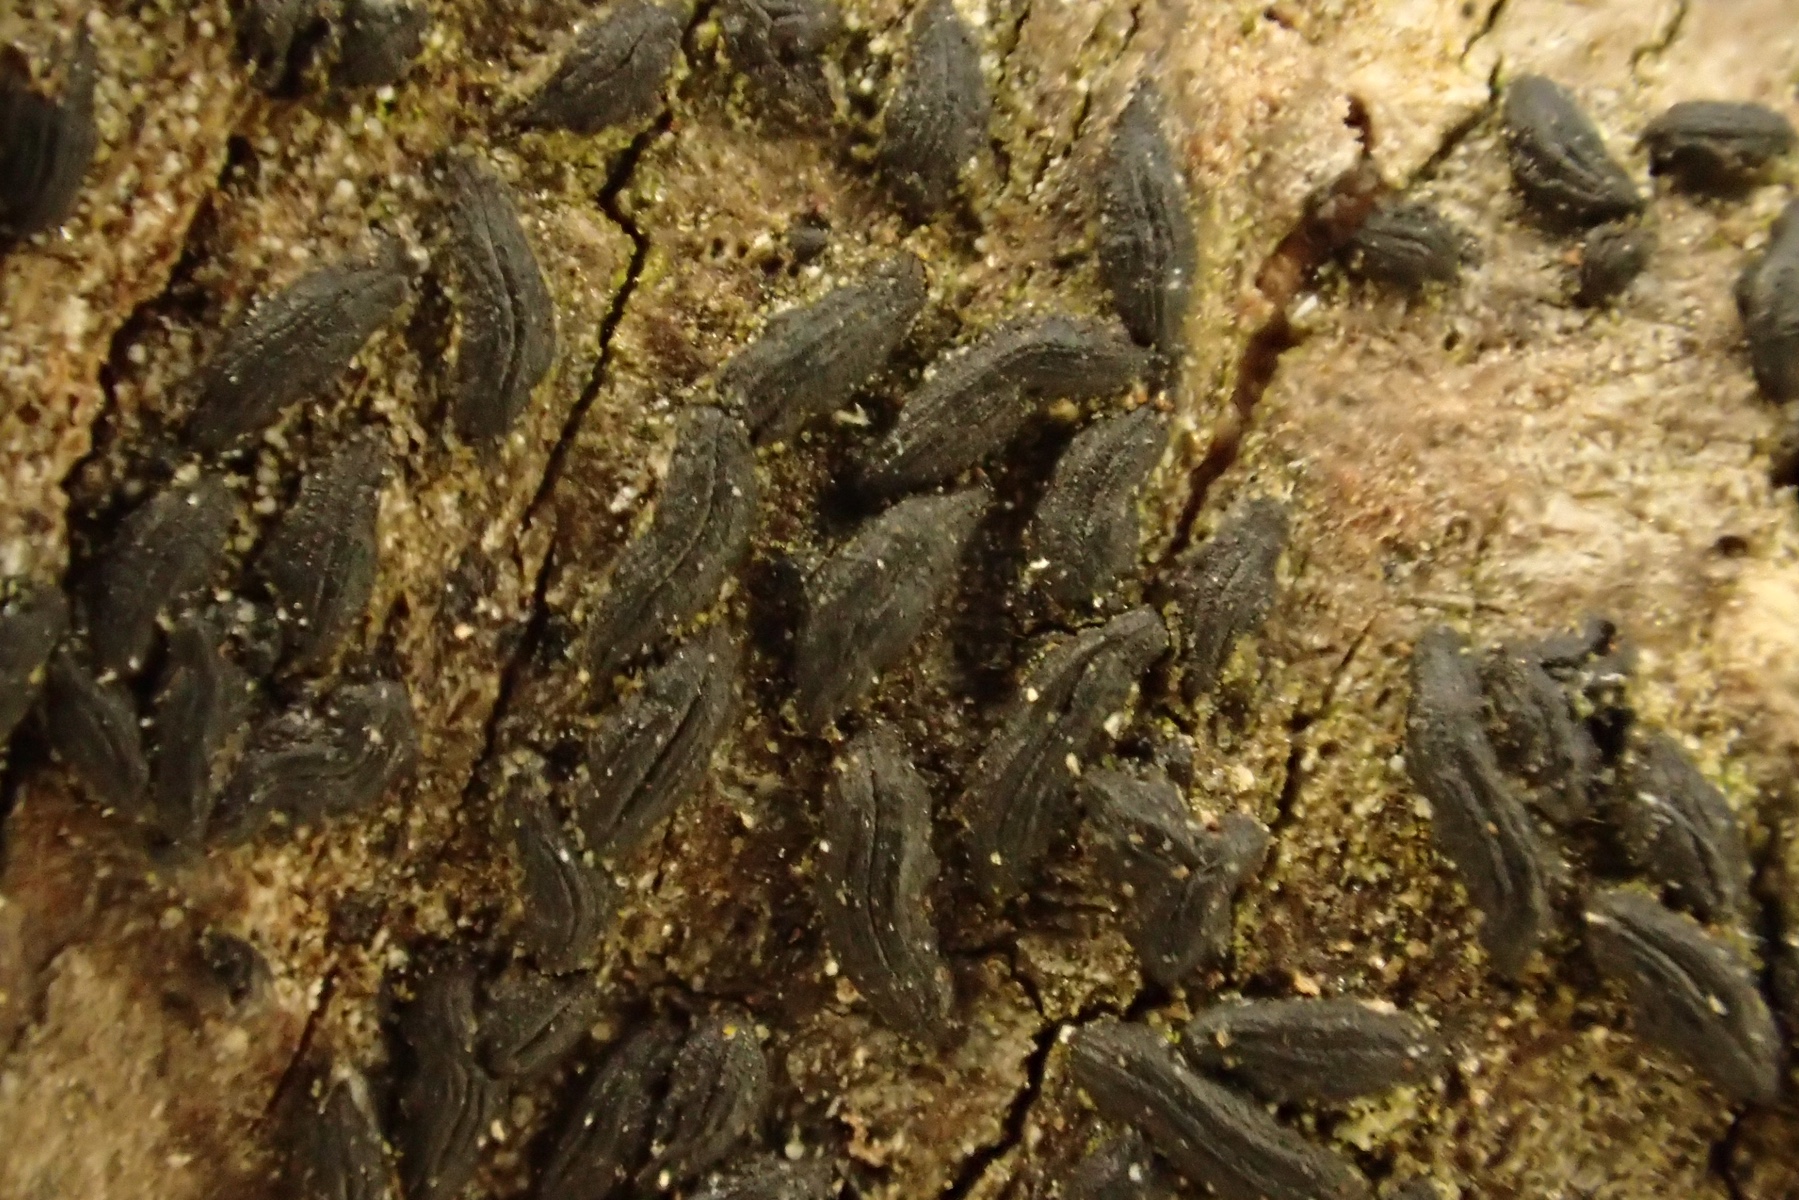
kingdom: Fungi
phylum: Ascomycota
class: Dothideomycetes
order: Hysteriales
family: Hysteriaceae
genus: Hysterium
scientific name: Hysterium acuminatum
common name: almindelig kulmund
